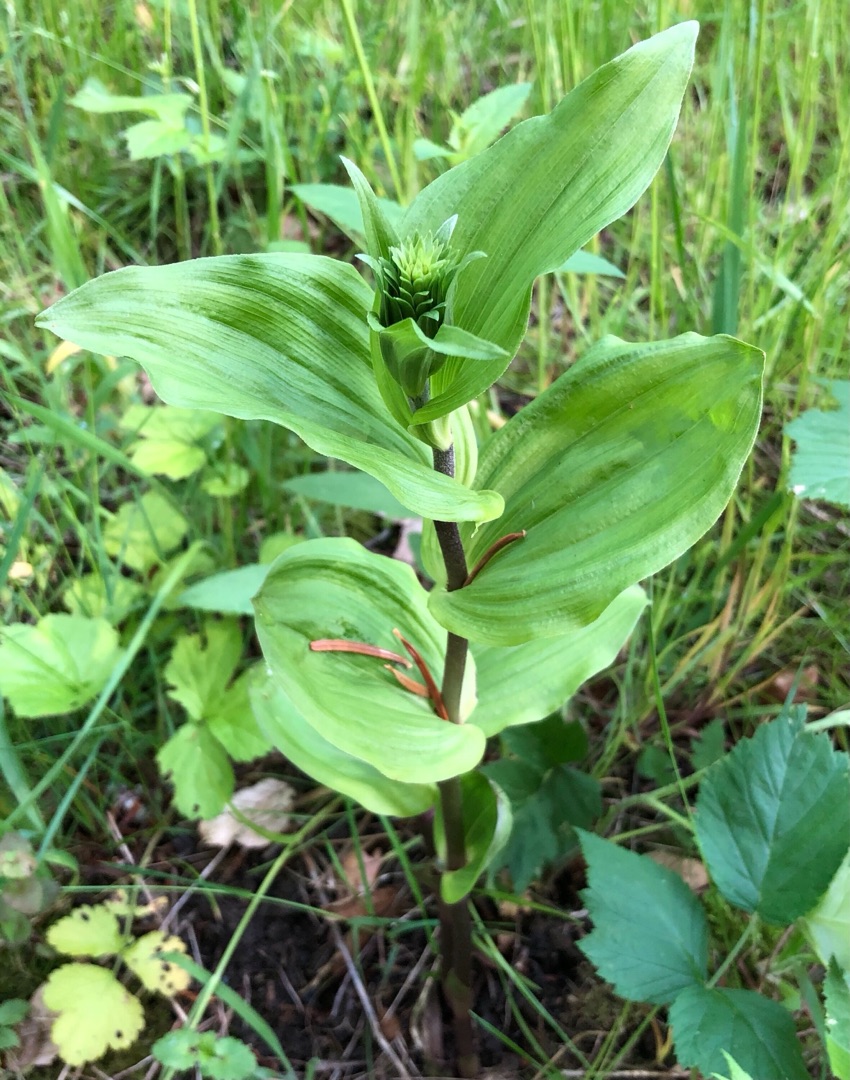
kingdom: Plantae
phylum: Tracheophyta
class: Liliopsida
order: Asparagales
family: Orchidaceae
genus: Epipactis
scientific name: Epipactis helleborine
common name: Skov-hullæbe
